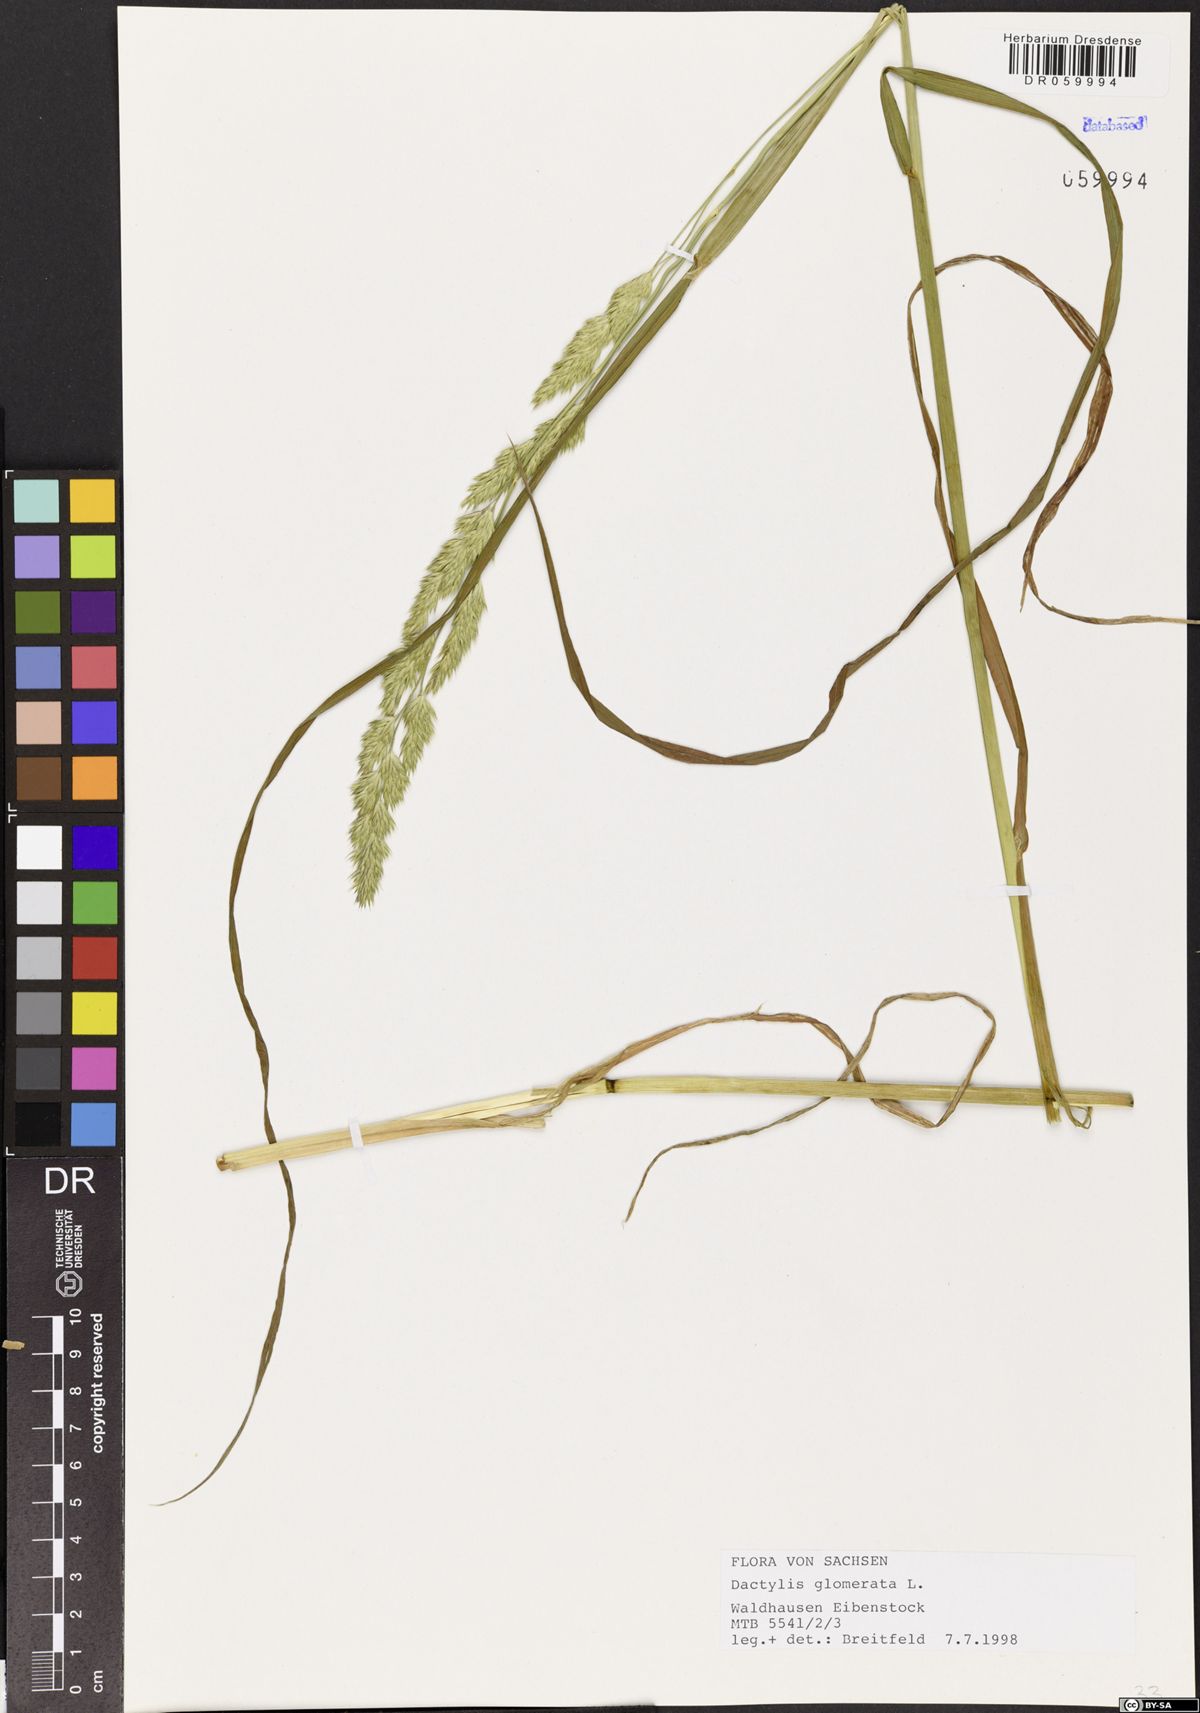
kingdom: Plantae
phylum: Tracheophyta
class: Liliopsida
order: Poales
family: Poaceae
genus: Dactylis
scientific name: Dactylis glomerata
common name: Orchardgrass
